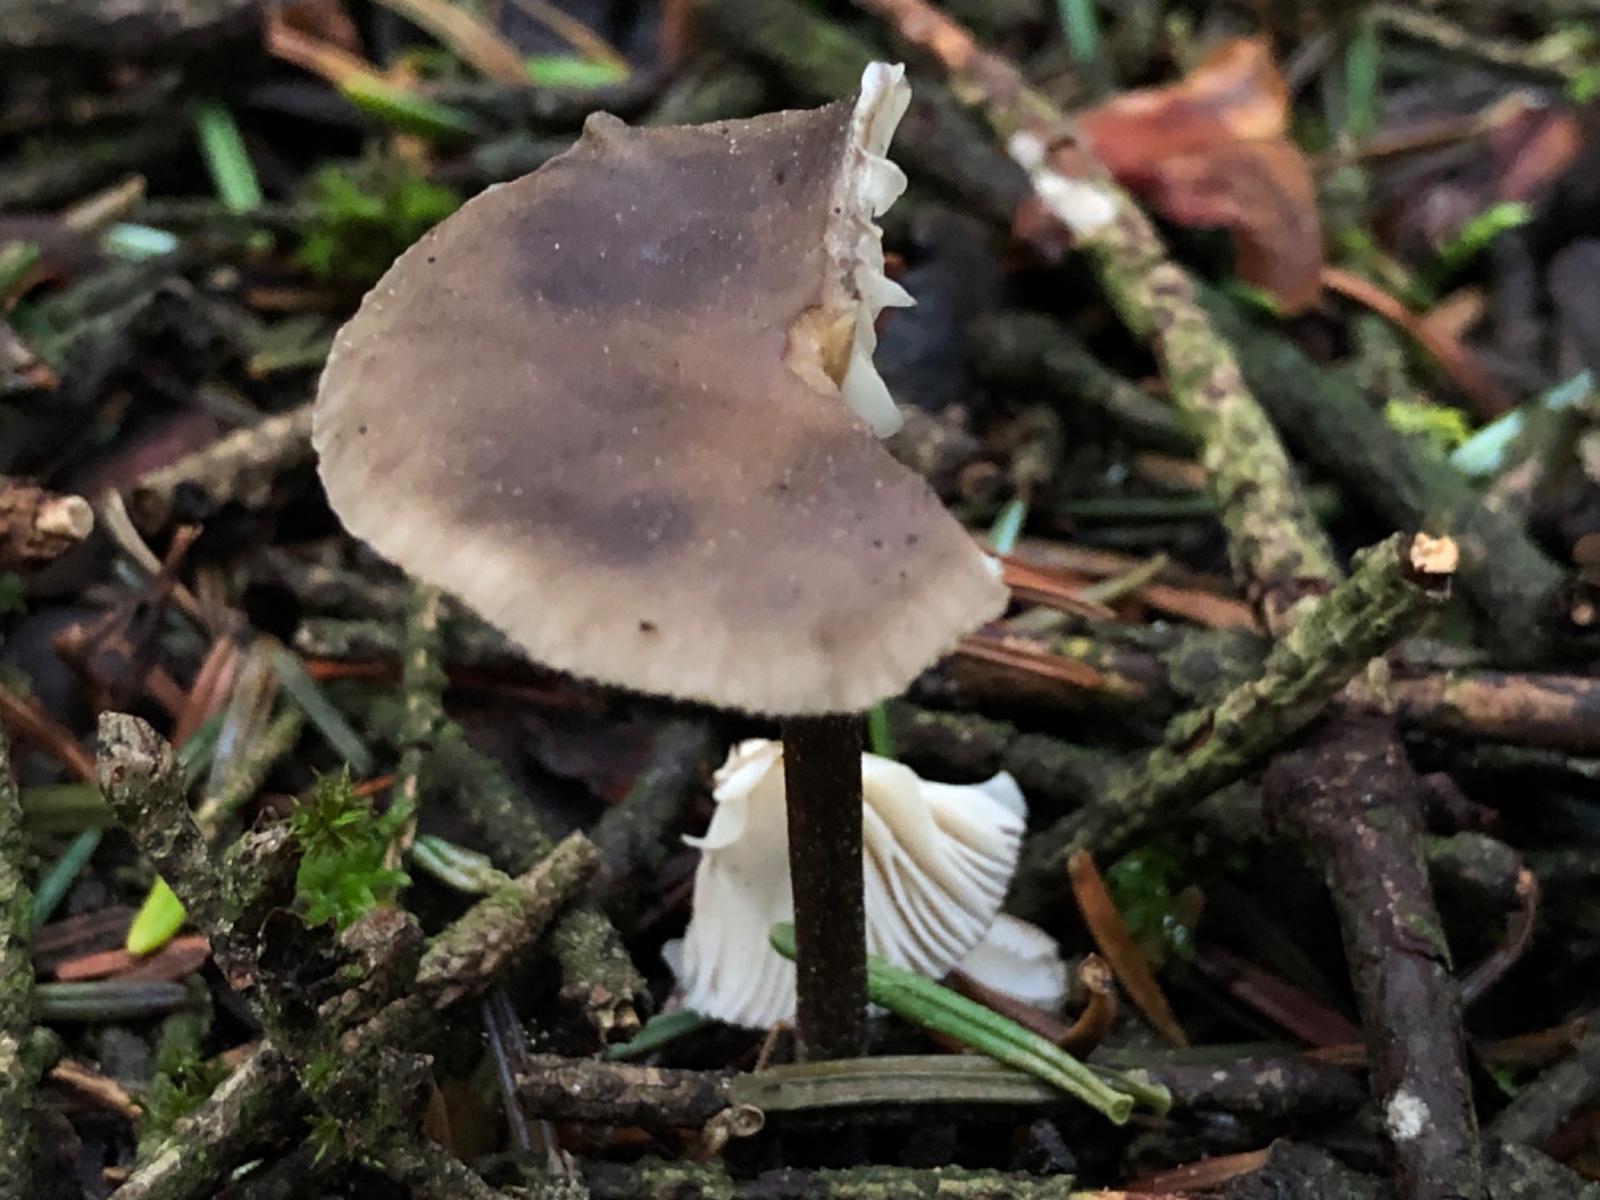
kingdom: Fungi
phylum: Basidiomycota
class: Agaricomycetes
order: Agaricales
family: Tricholomataceae
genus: Melanoleuca
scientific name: Melanoleuca
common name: munkehat
